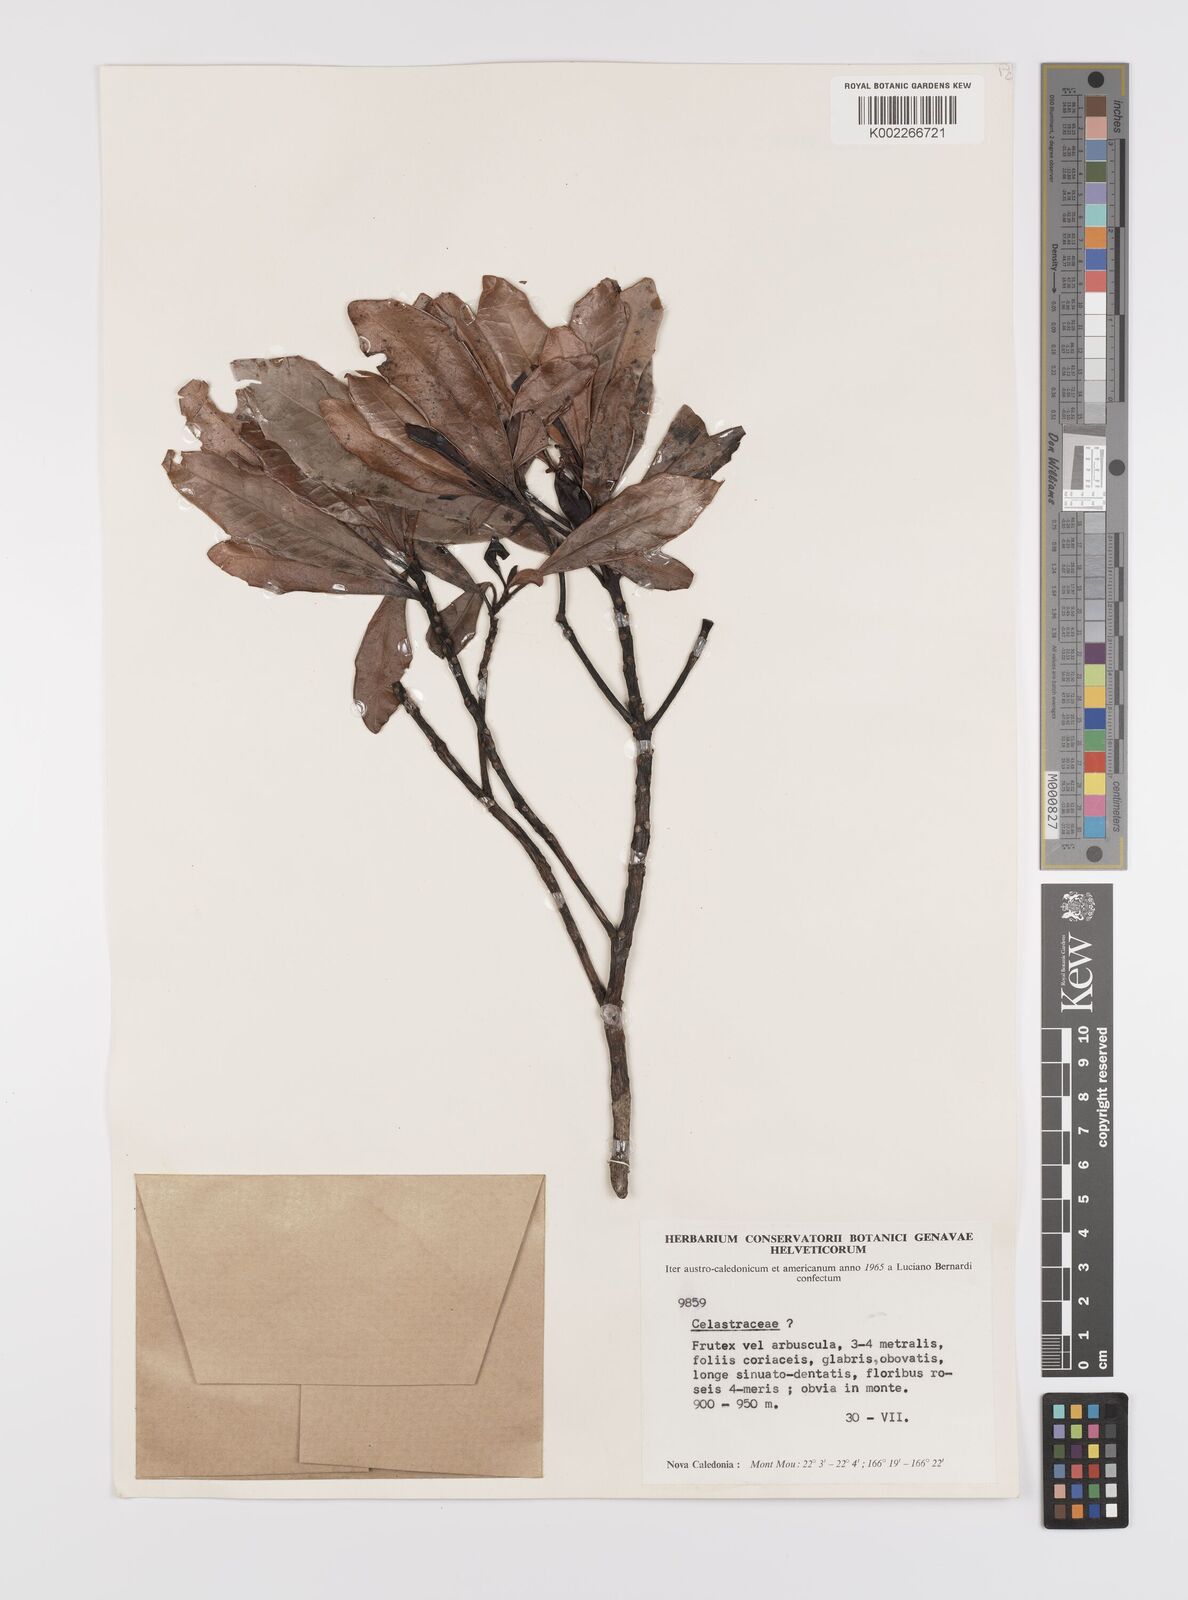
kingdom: Plantae
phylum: Tracheophyta
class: Magnoliopsida
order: Celastrales
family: Celastraceae
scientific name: Celastraceae
